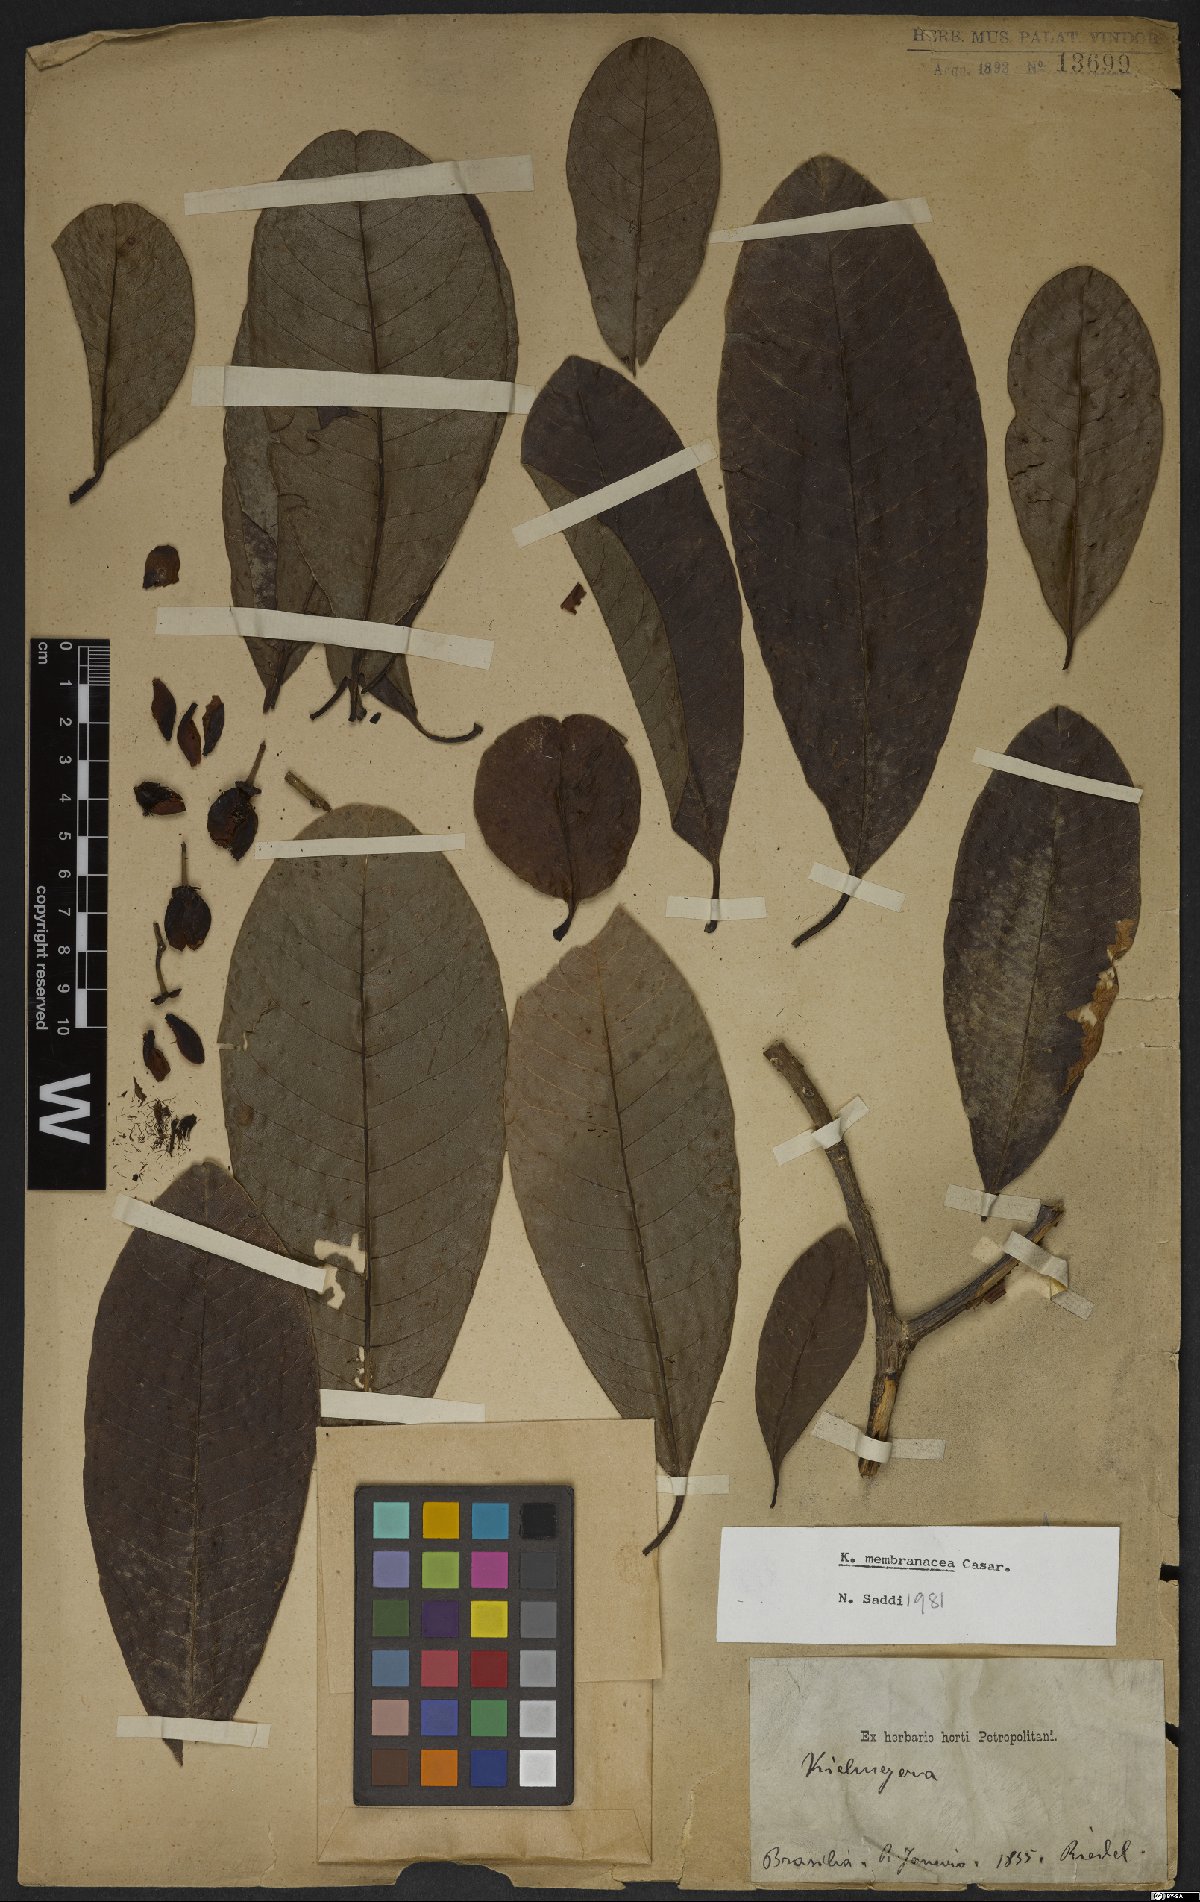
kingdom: Plantae
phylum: Tracheophyta
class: Magnoliopsida
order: Malpighiales
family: Calophyllaceae
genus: Kielmeyera
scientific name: Kielmeyera membranacea
